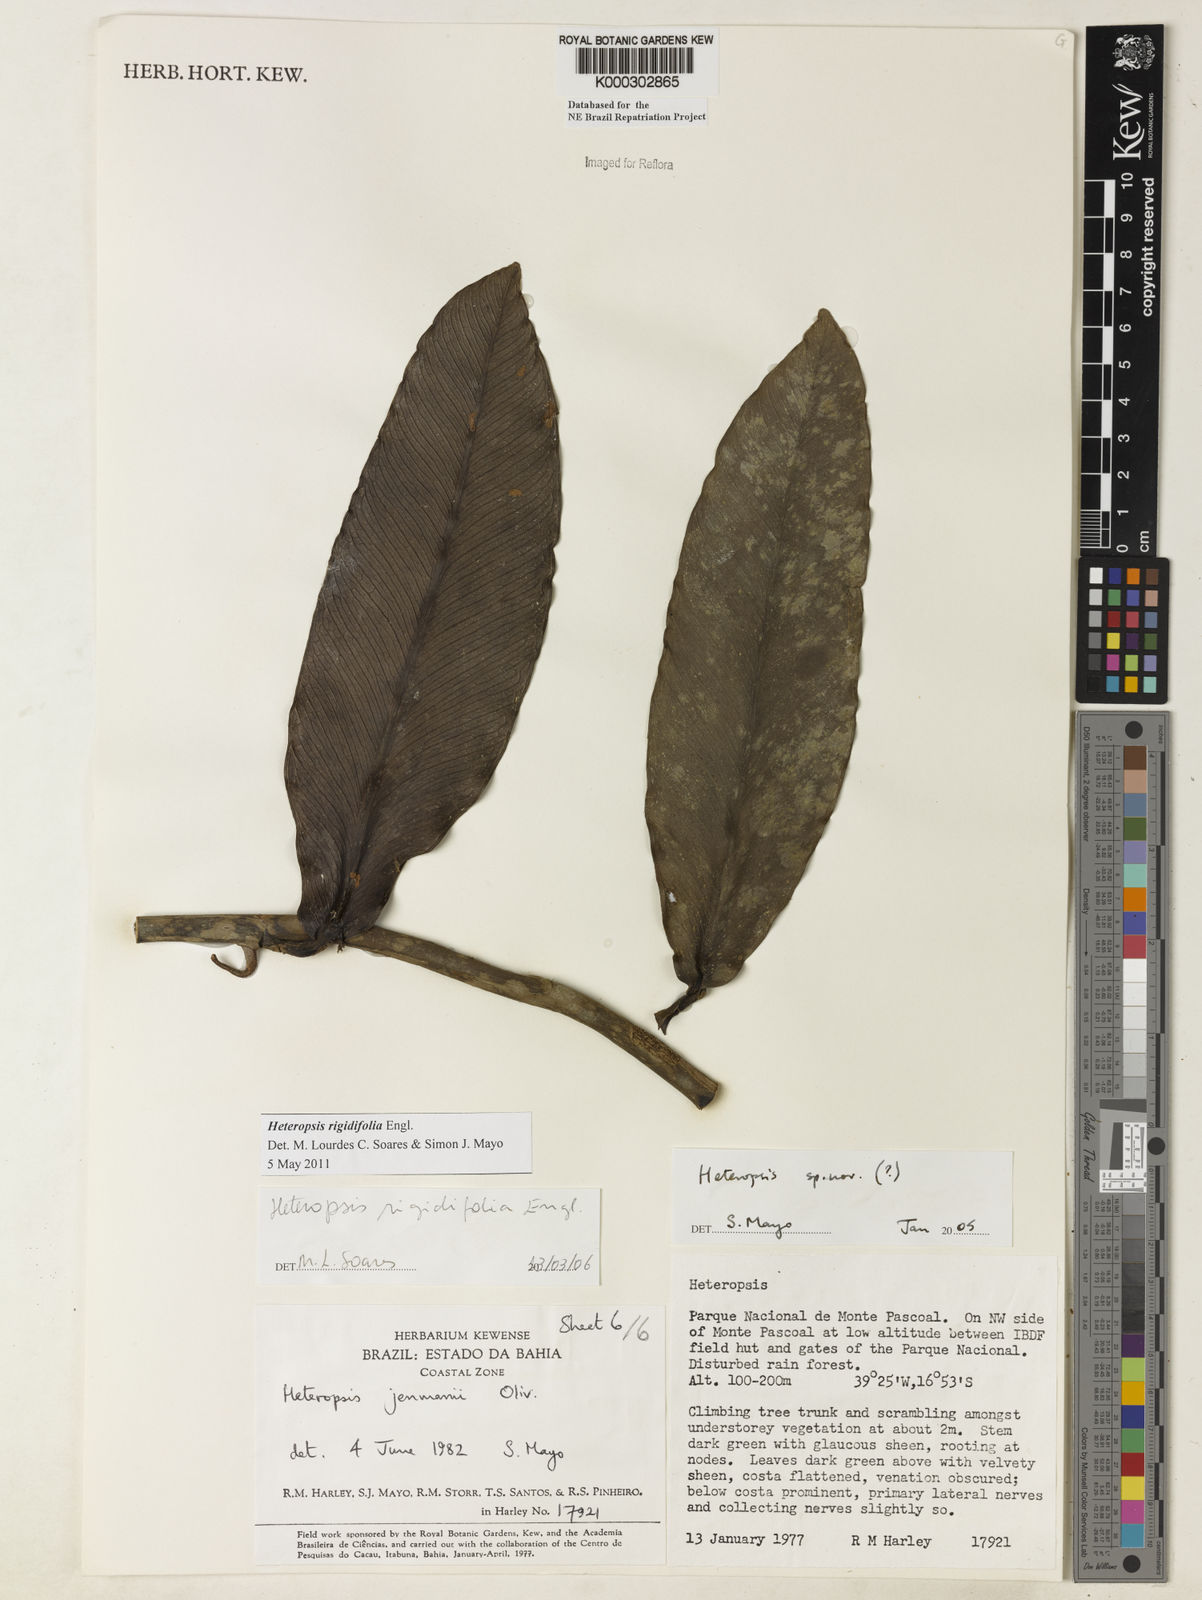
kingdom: Plantae
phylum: Tracheophyta
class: Liliopsida
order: Alismatales
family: Araceae
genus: Heteropsis
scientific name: Heteropsis
